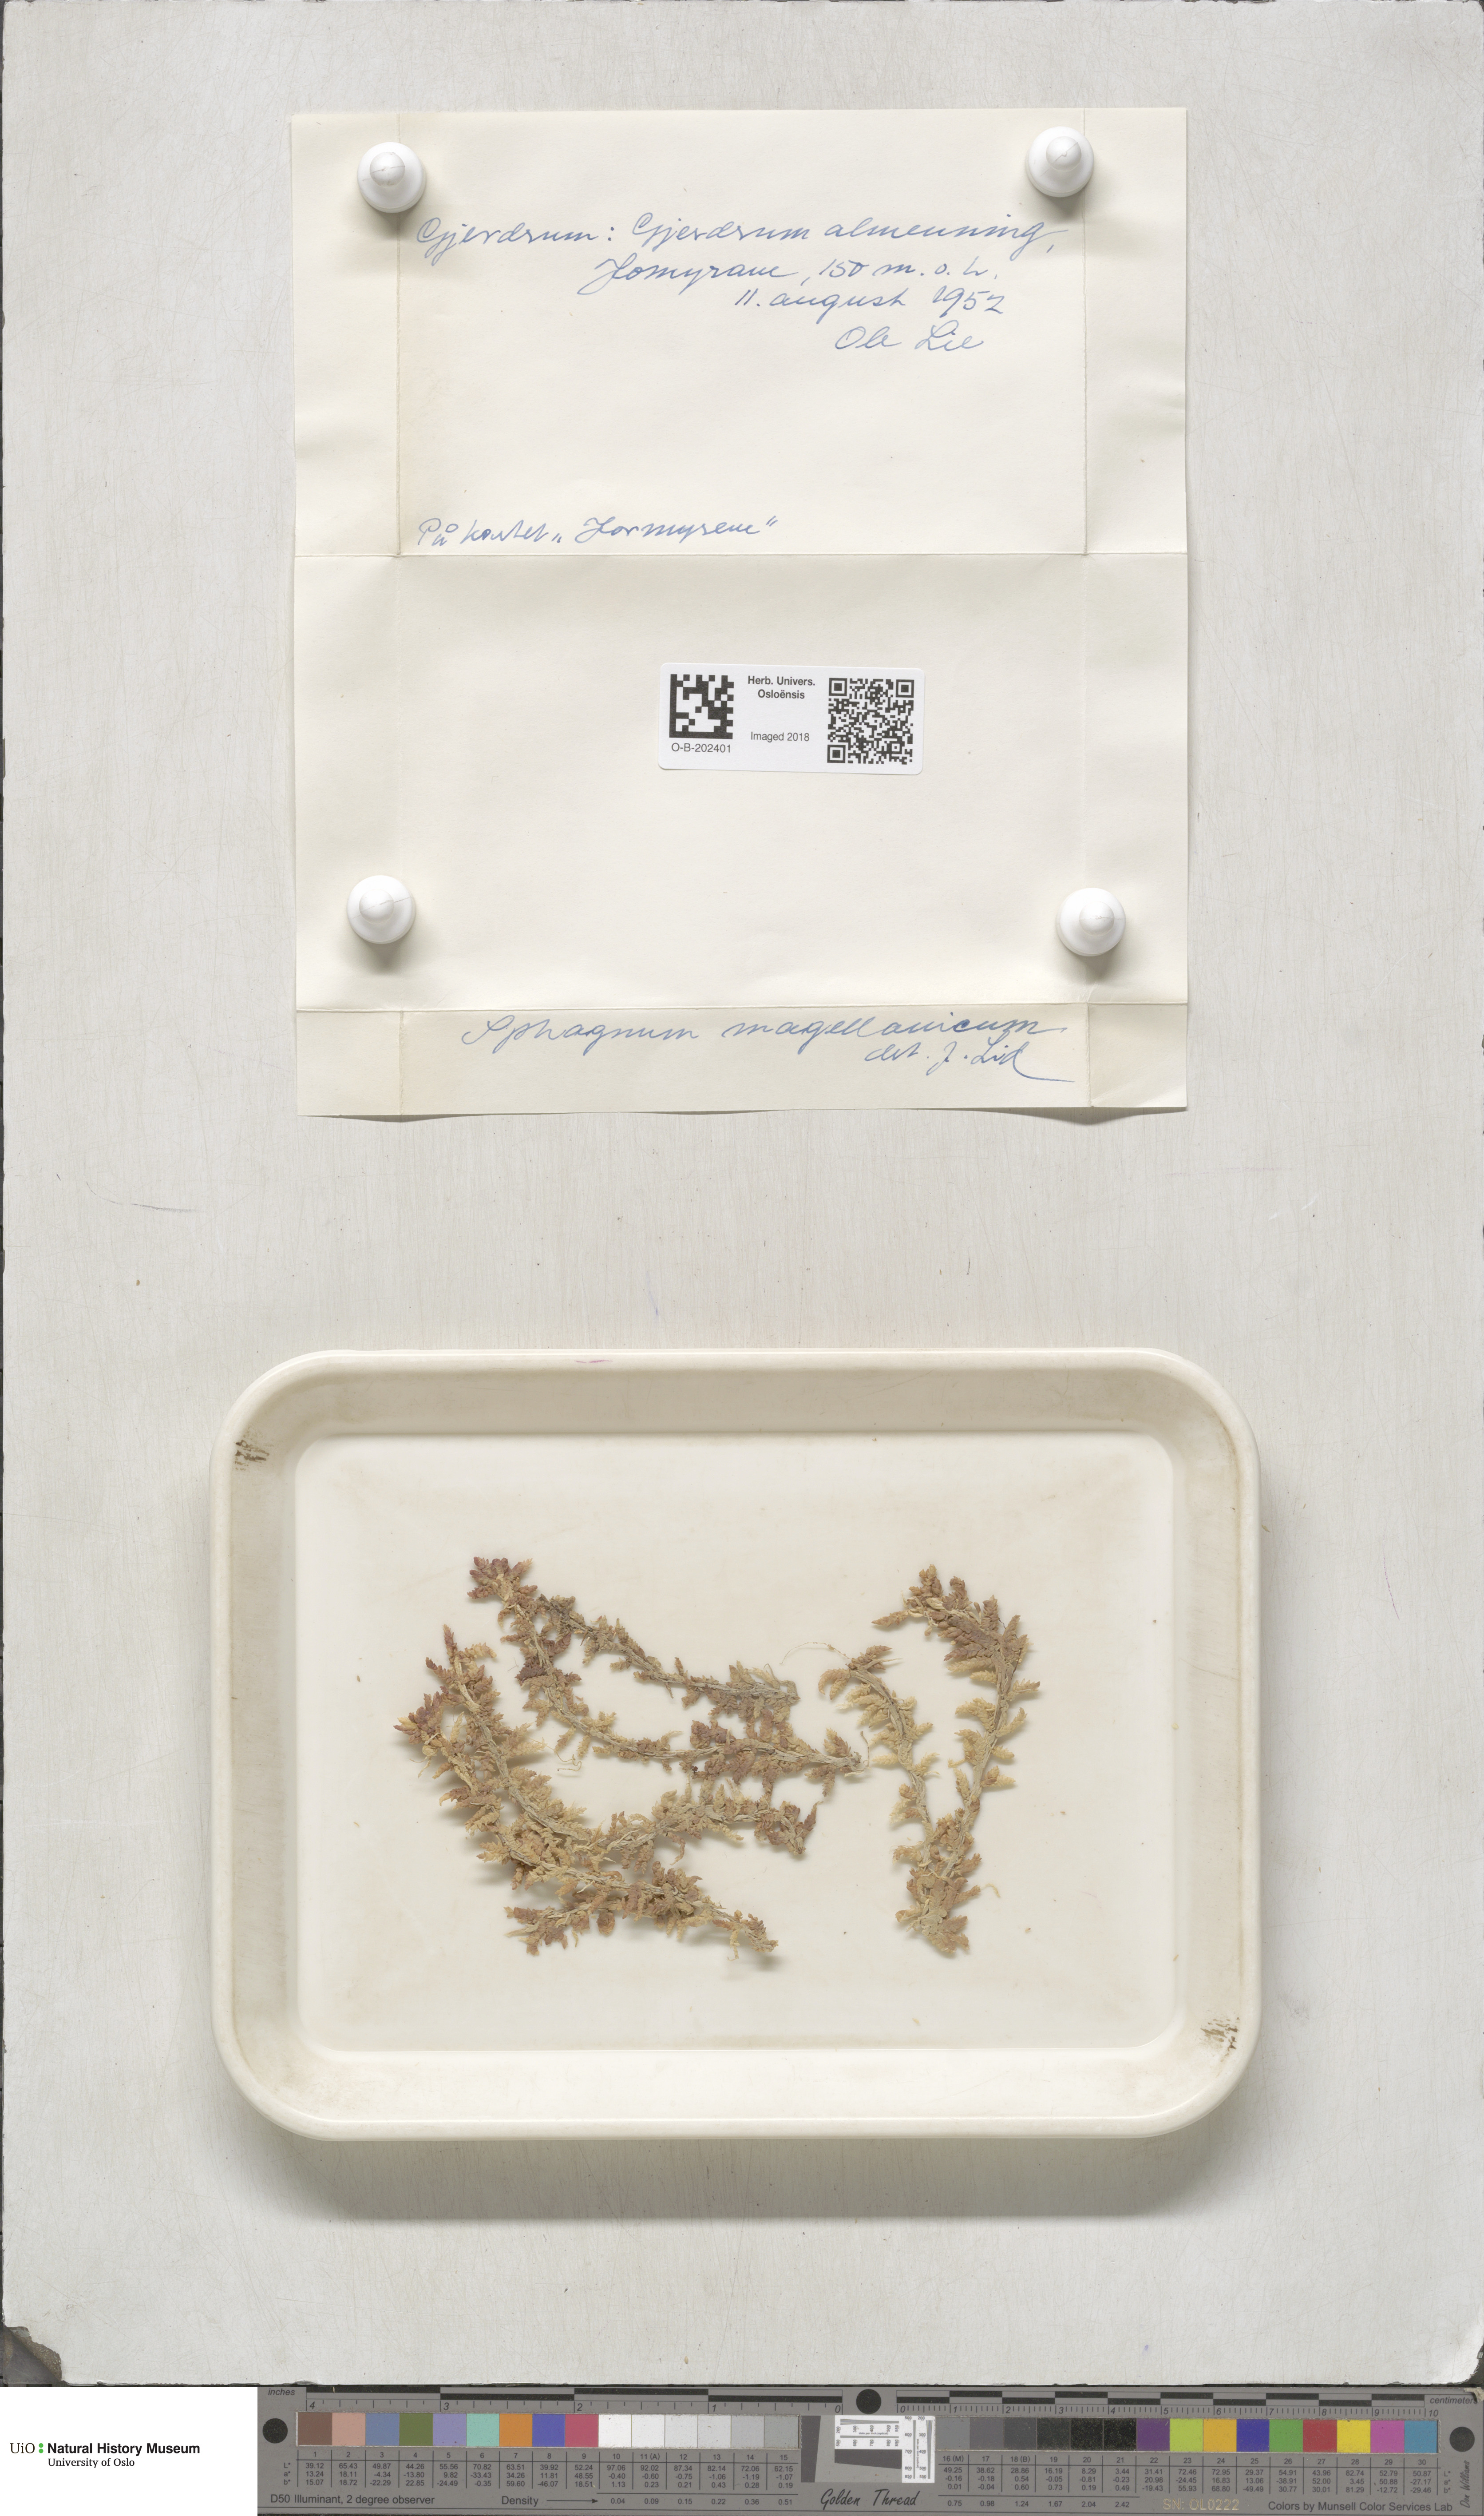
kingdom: Plantae
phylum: Bryophyta
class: Sphagnopsida
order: Sphagnales
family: Sphagnaceae
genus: Sphagnum
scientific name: Sphagnum magellanicum
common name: Magellan's peat moss
